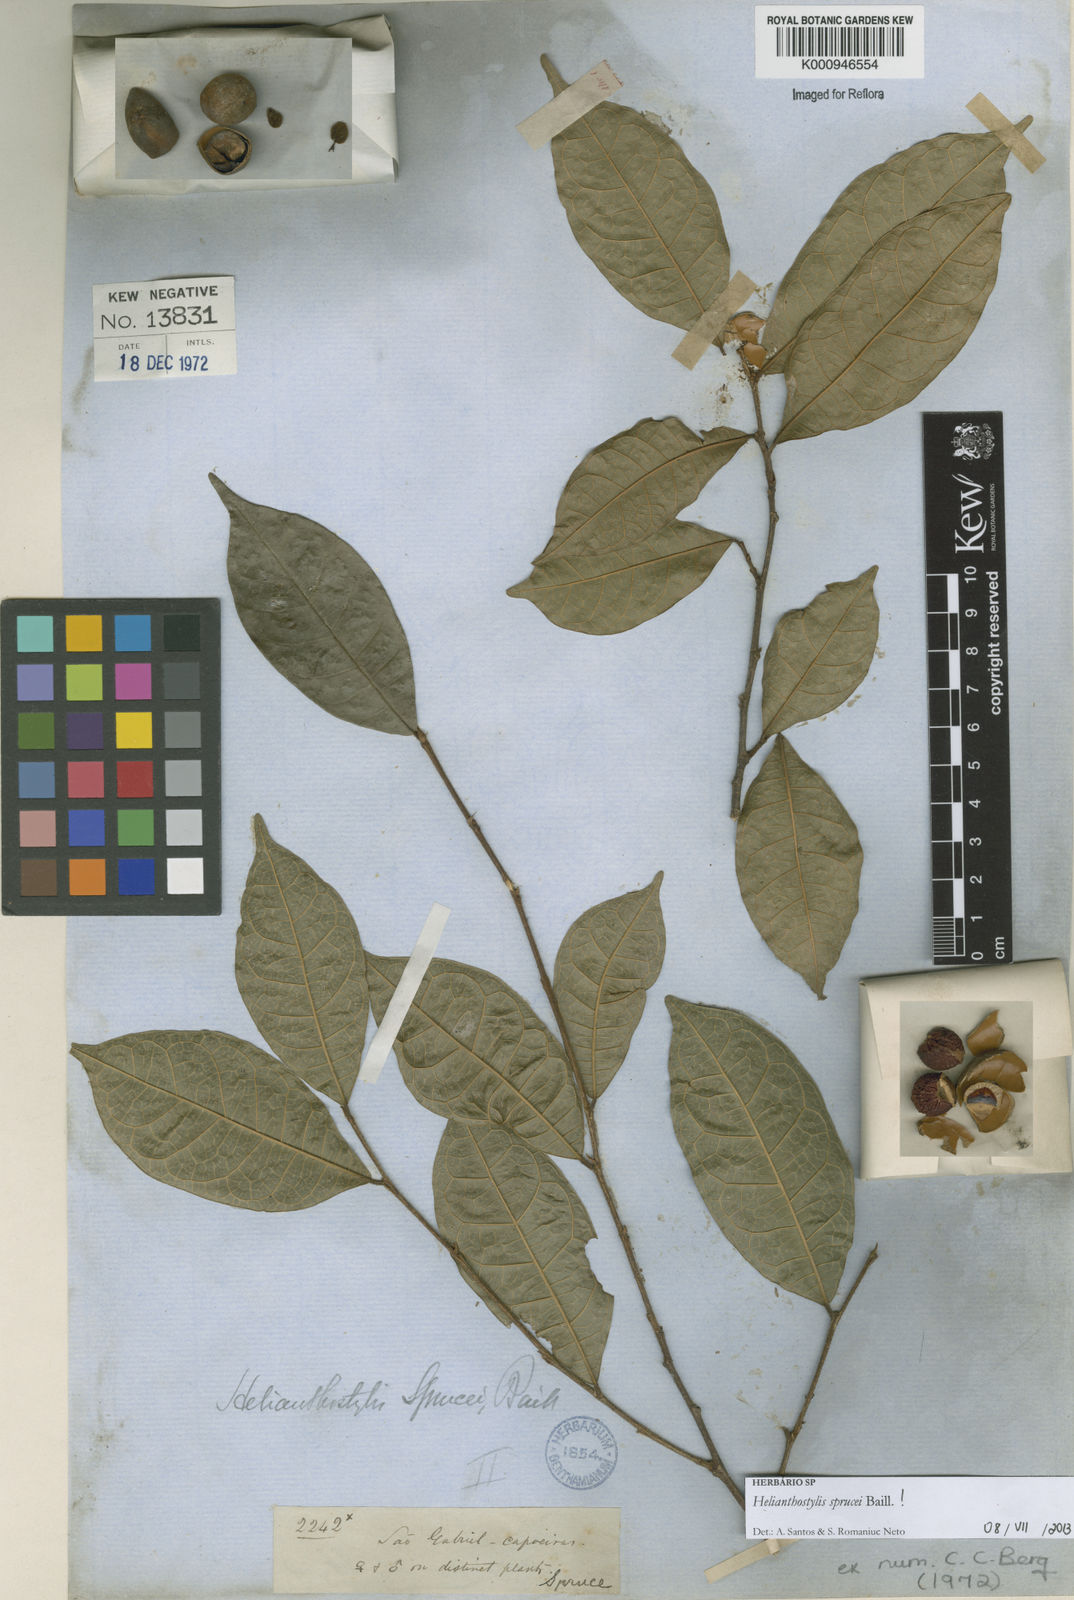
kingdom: Plantae
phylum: Tracheophyta
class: Magnoliopsida
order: Rosales
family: Moraceae
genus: Brosimum
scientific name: Brosimum sprucei
